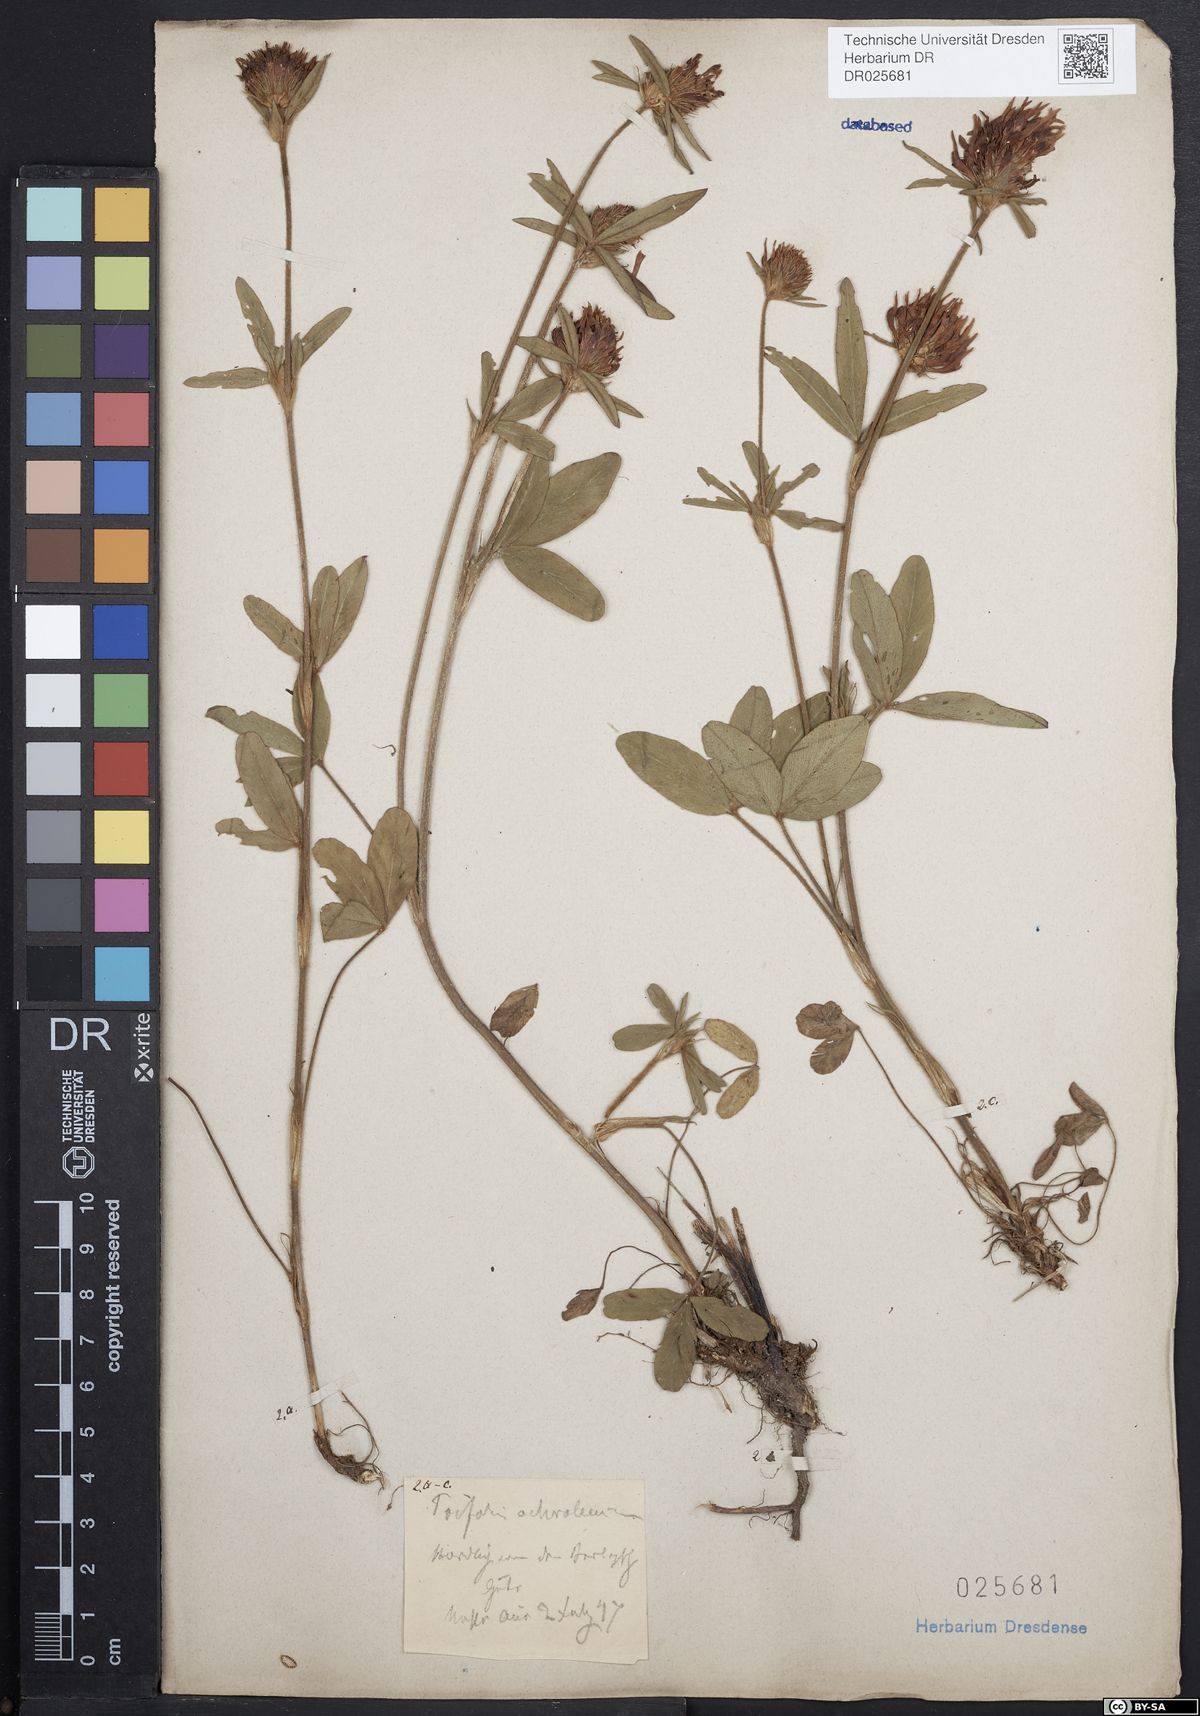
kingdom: Plantae
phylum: Tracheophyta
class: Magnoliopsida
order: Fabales
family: Fabaceae
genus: Trifolium
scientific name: Trifolium ochroleucon
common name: Sulphur clover
